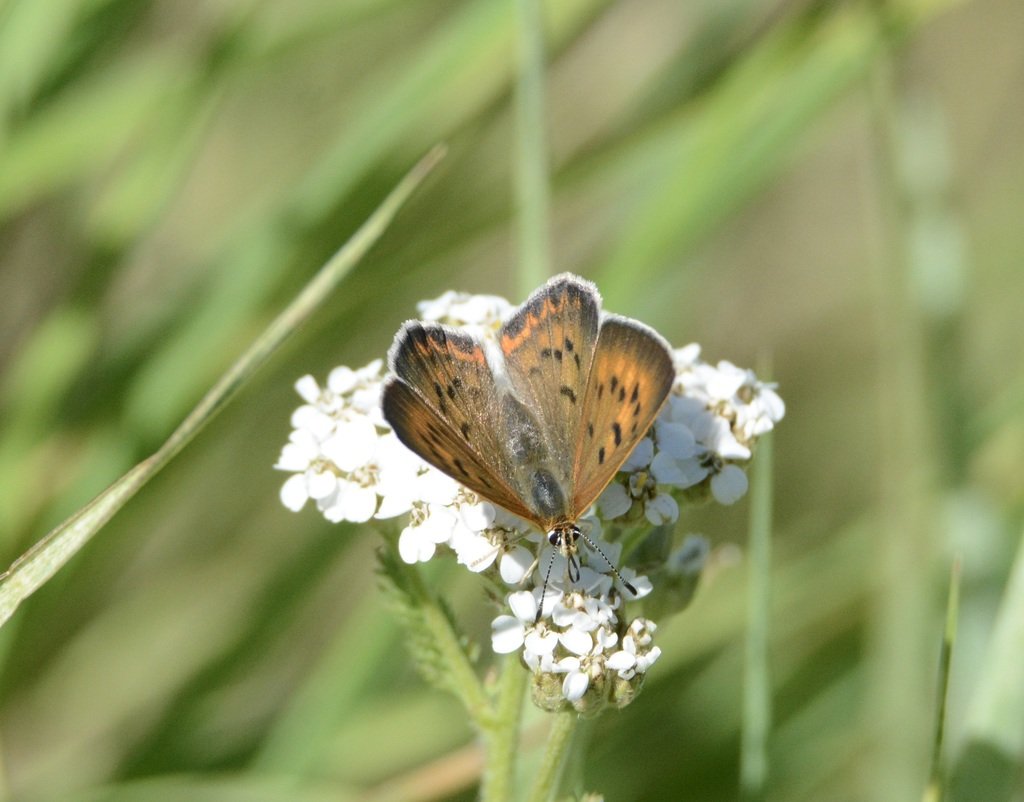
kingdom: Animalia
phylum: Arthropoda
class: Insecta
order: Lepidoptera
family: Sesiidae
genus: Sesia
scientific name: Sesia Lycaena helloides
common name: Purplish Copper
